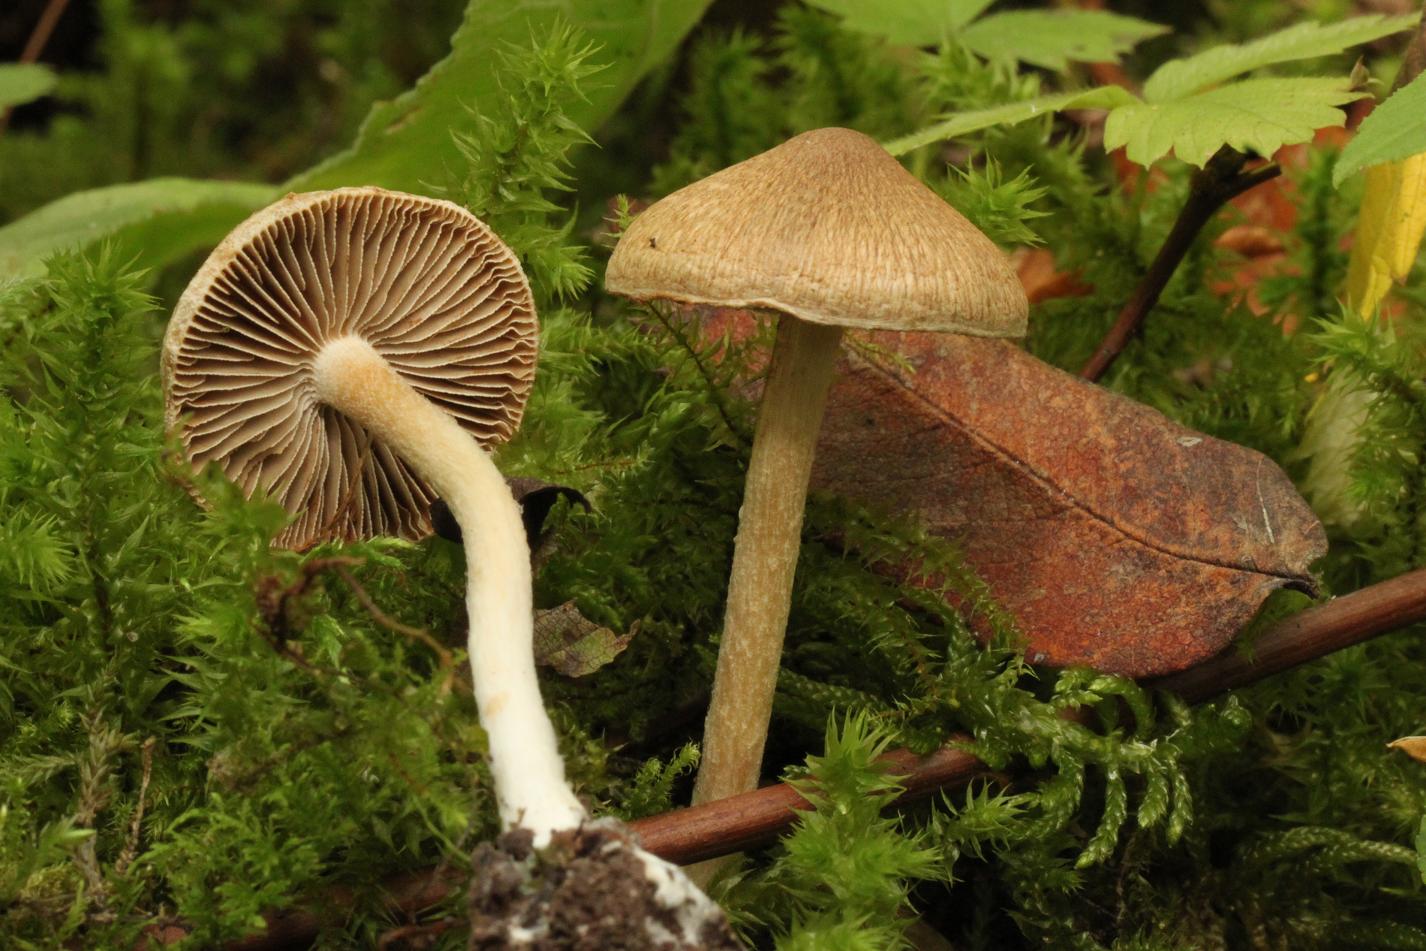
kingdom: Fungi
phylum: Basidiomycota
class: Agaricomycetes
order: Agaricales
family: Inocybaceae
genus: Inocybe
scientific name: Inocybe
